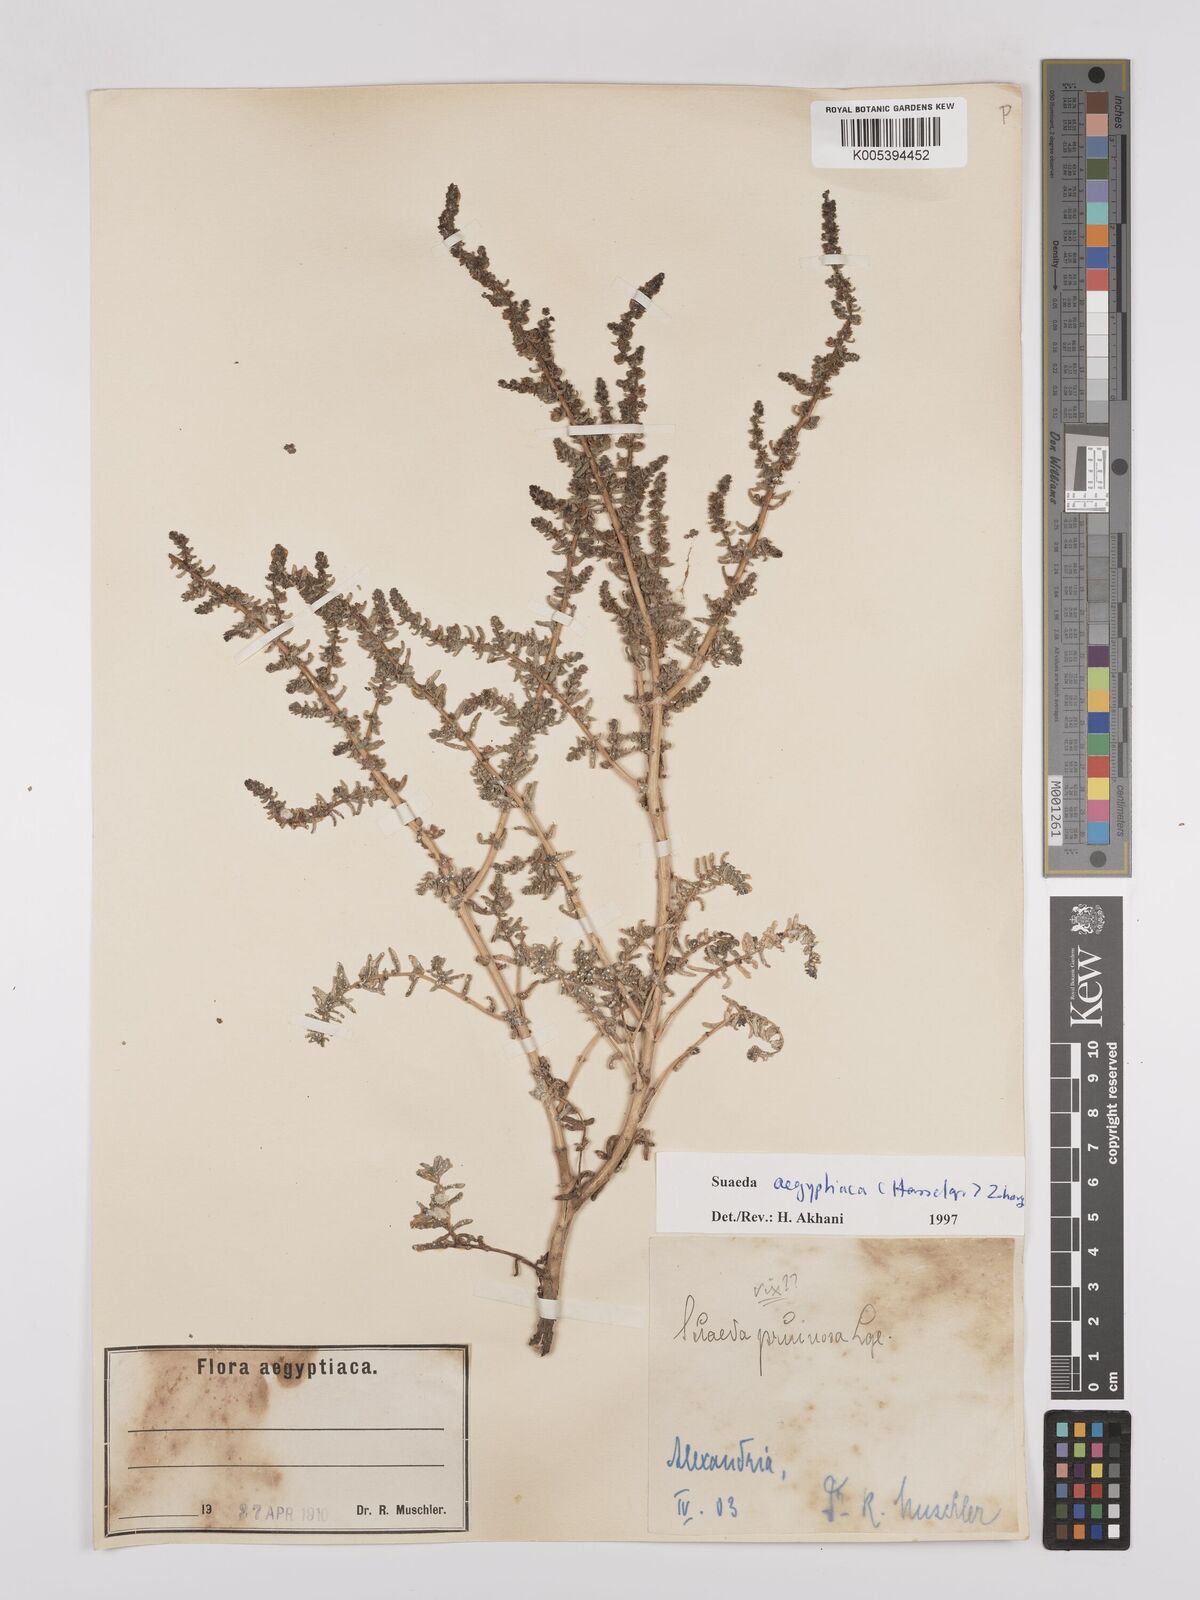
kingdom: Plantae
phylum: Tracheophyta
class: Magnoliopsida
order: Caryophyllales
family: Amaranthaceae
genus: Suaeda
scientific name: Suaeda aegyptiaca
